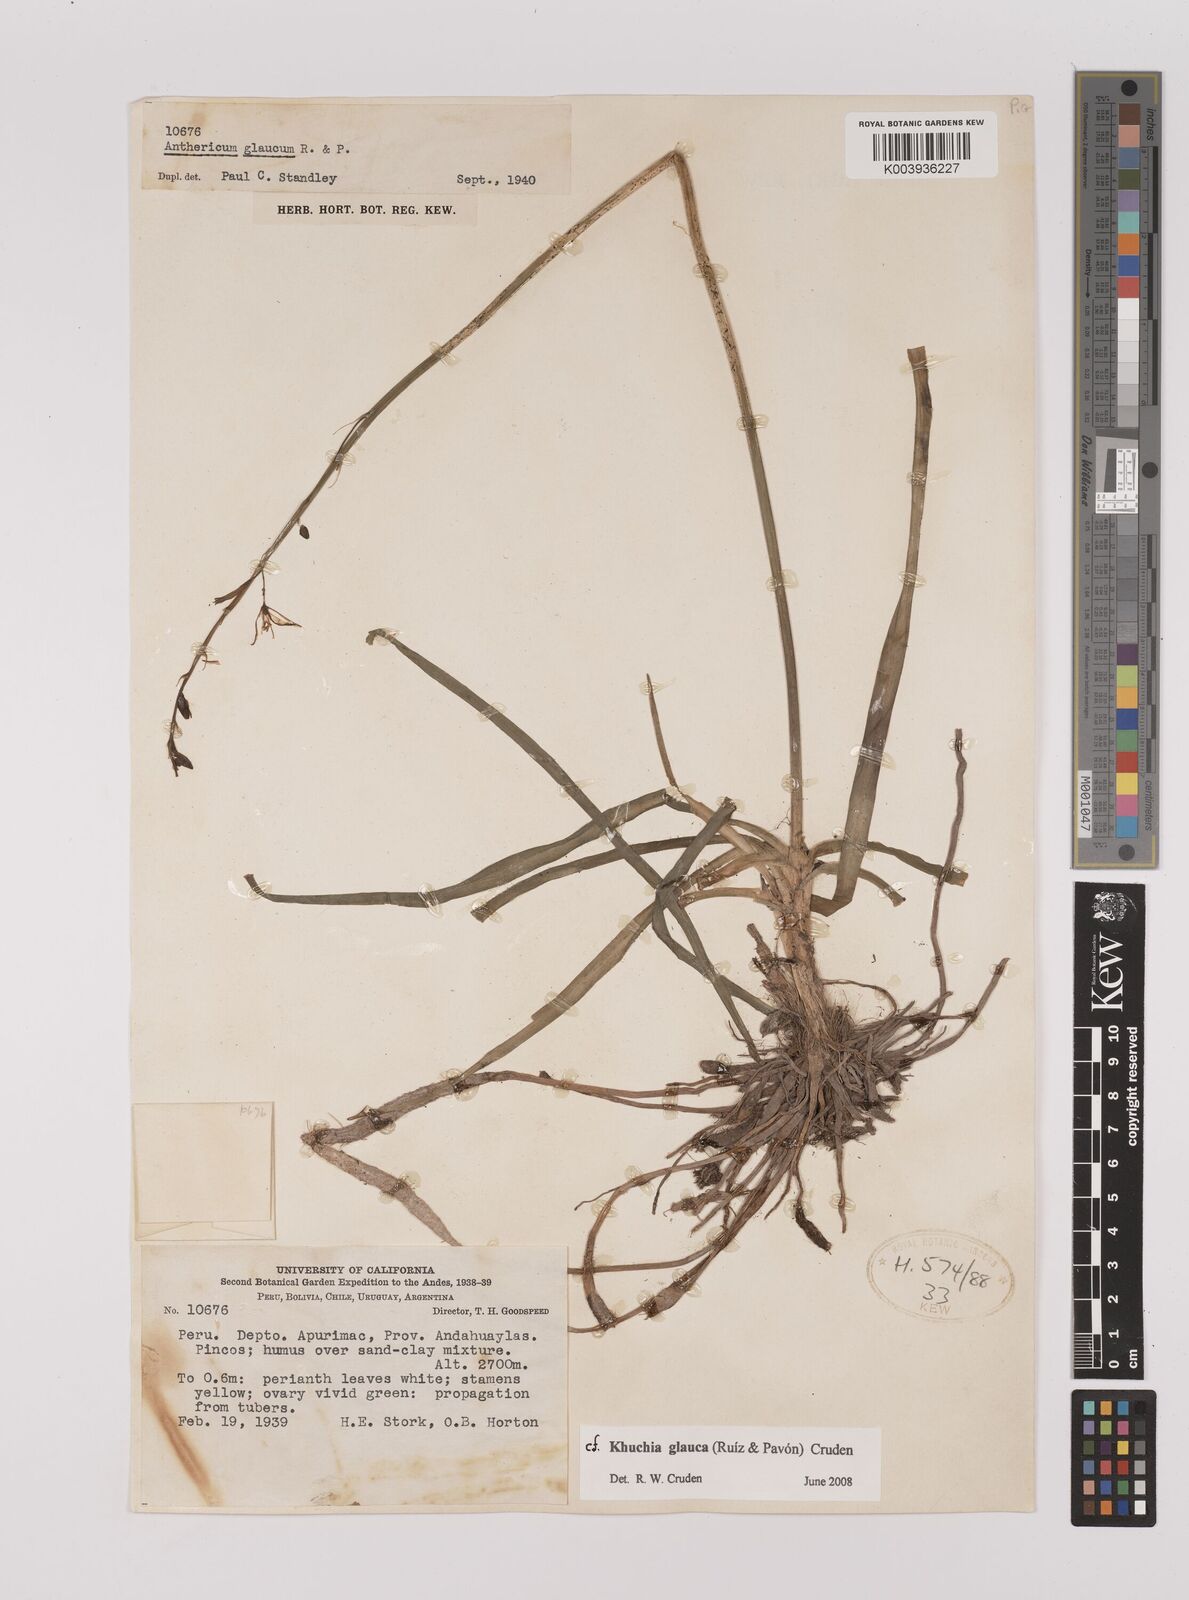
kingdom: Plantae
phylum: Tracheophyta
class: Liliopsida
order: Asparagales
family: Asparagaceae
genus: Echeandia
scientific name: Echeandia
